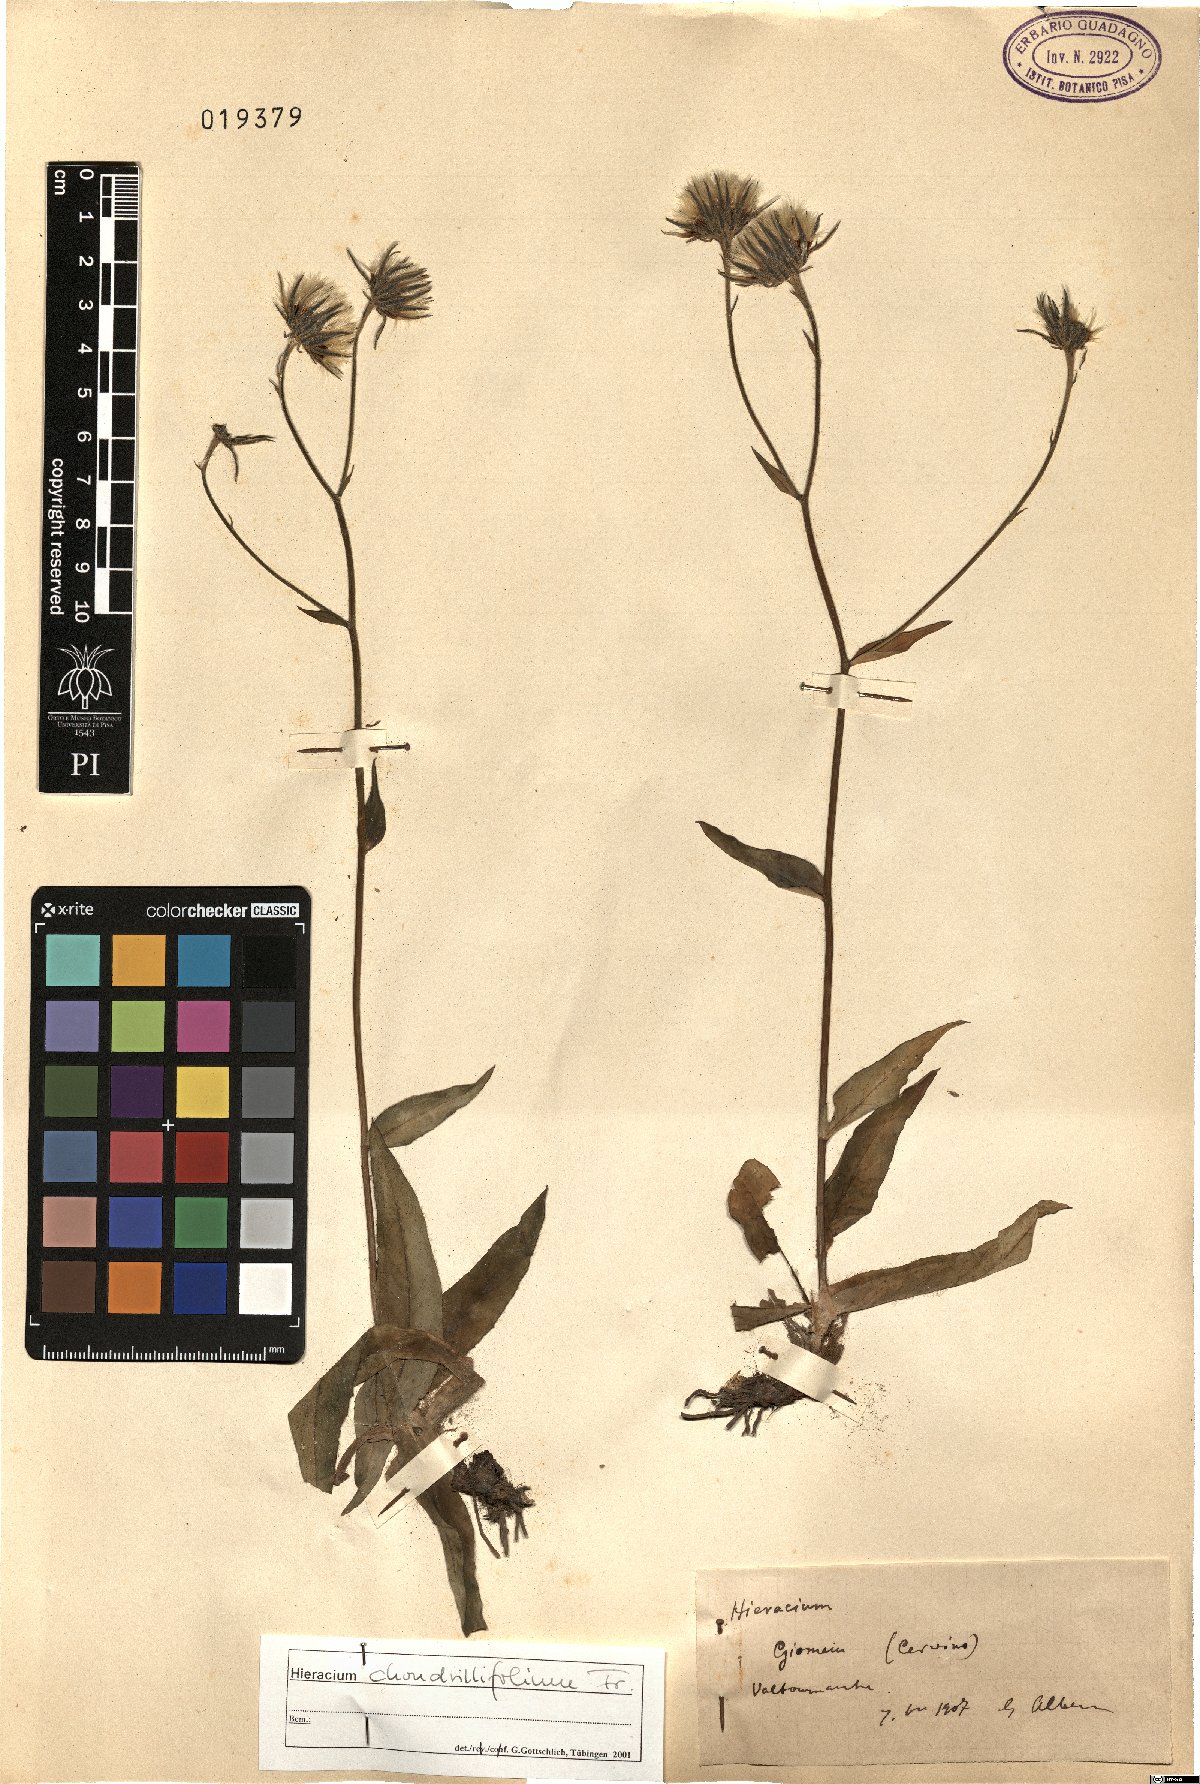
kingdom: Plantae
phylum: Tracheophyta
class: Magnoliopsida
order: Asterales
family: Asteraceae
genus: Hieracium
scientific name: Hieracium chondrillifolium
